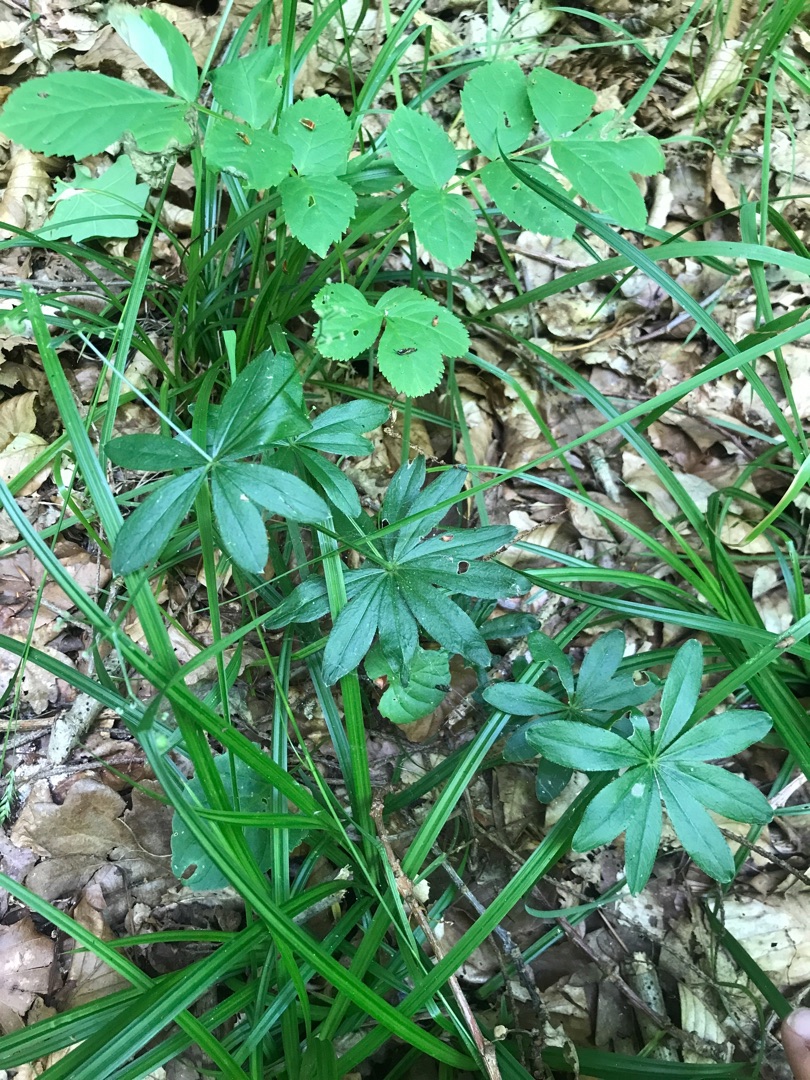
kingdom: Plantae
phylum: Tracheophyta
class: Magnoliopsida
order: Gentianales
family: Rubiaceae
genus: Galium
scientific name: Galium odoratum
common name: Skovmærke
